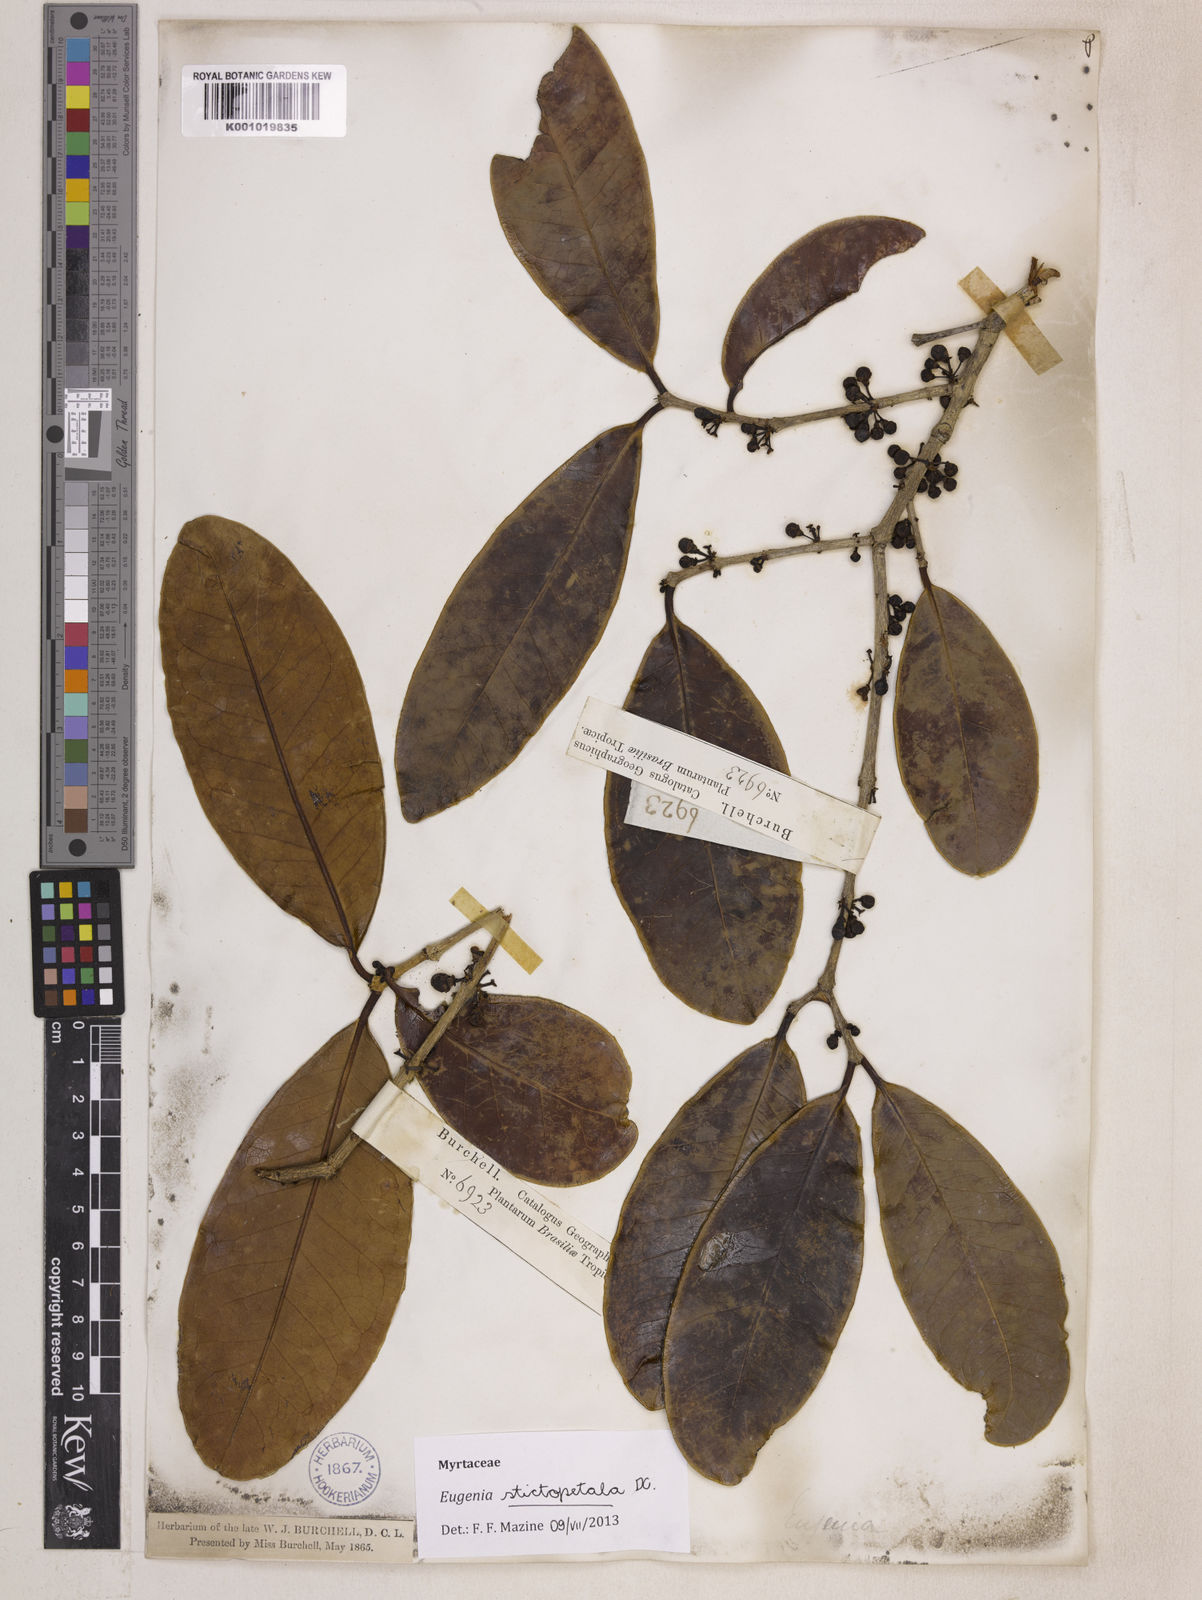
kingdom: Plantae
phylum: Tracheophyta
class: Magnoliopsida
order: Myrtales
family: Myrtaceae
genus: Eugenia
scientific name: Eugenia stictopetala
